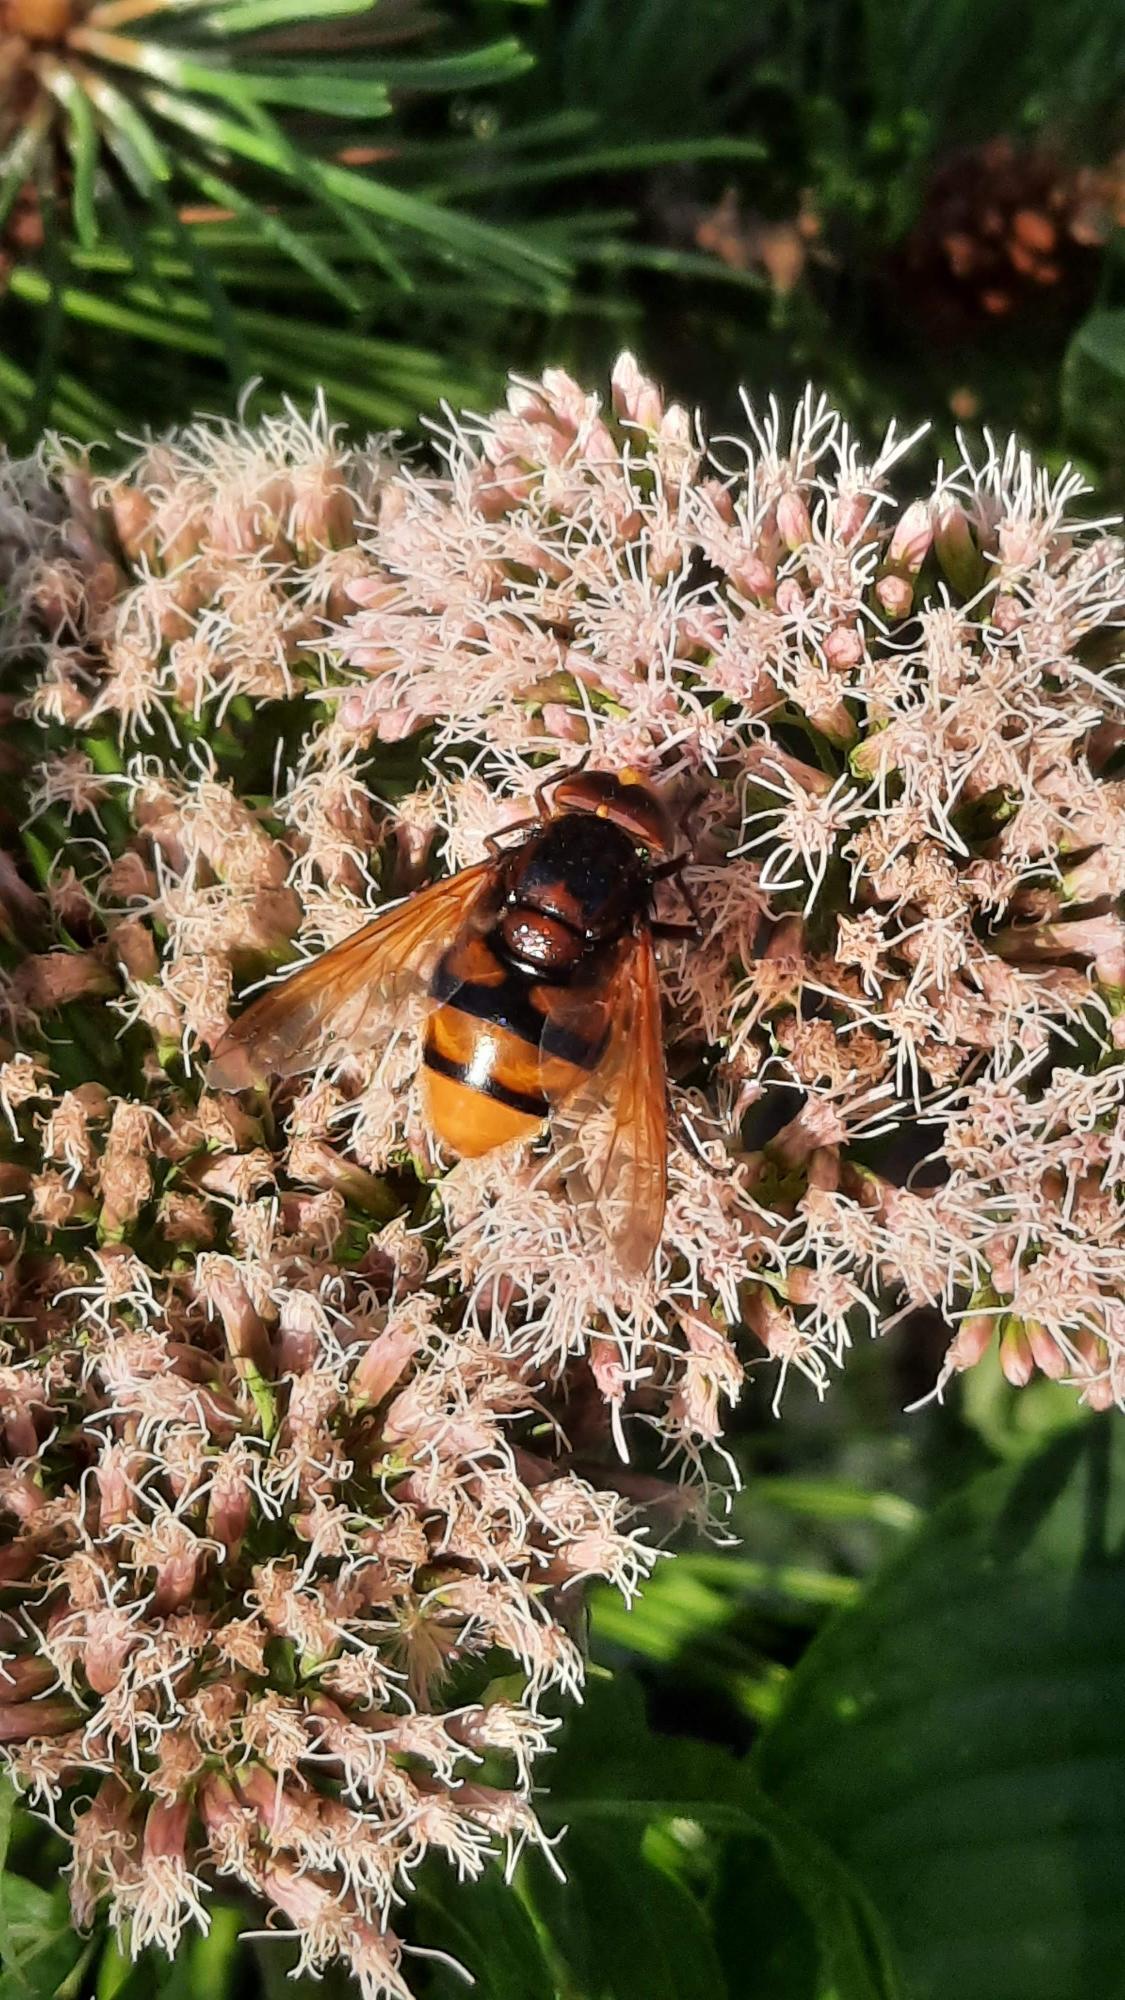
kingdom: Animalia
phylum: Arthropoda
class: Insecta
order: Diptera
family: Syrphidae
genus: Volucella
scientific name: Volucella zonaria
